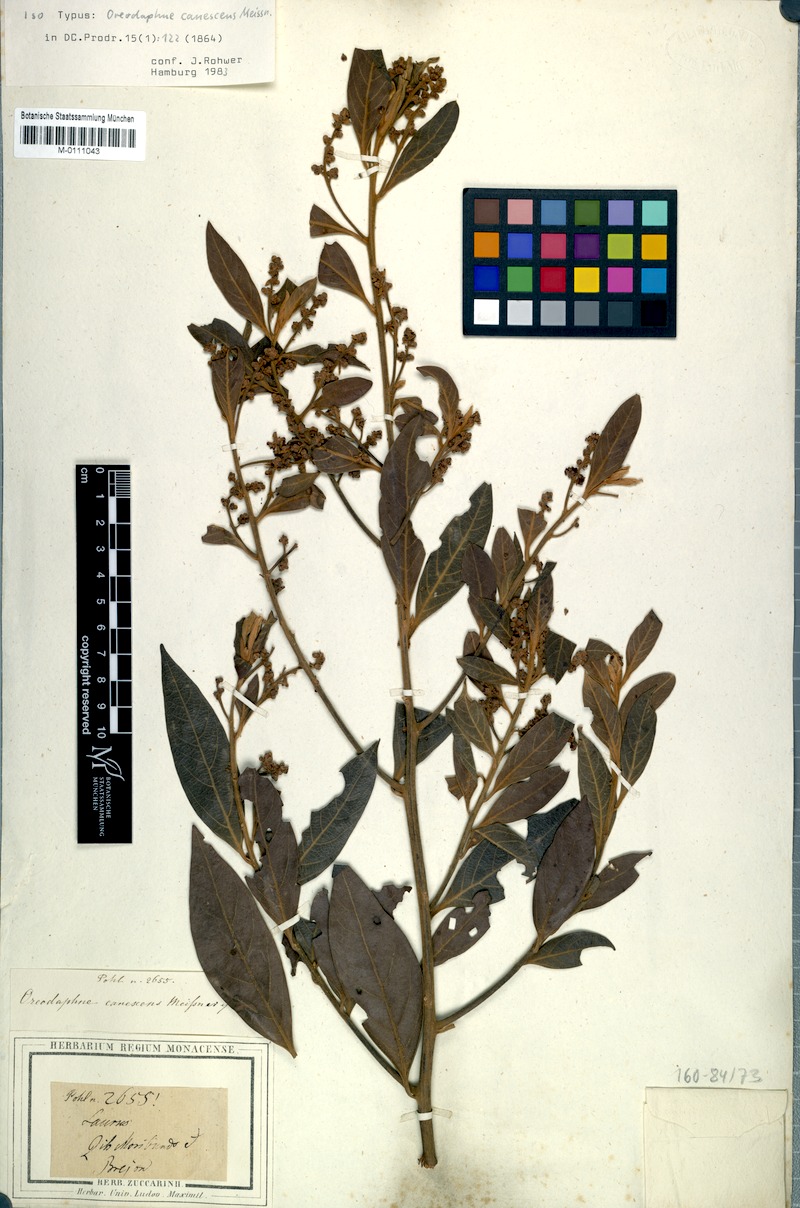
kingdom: Plantae
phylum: Tracheophyta
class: Magnoliopsida
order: Laurales
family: Lauraceae
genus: Ocotea
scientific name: Ocotea minarum
